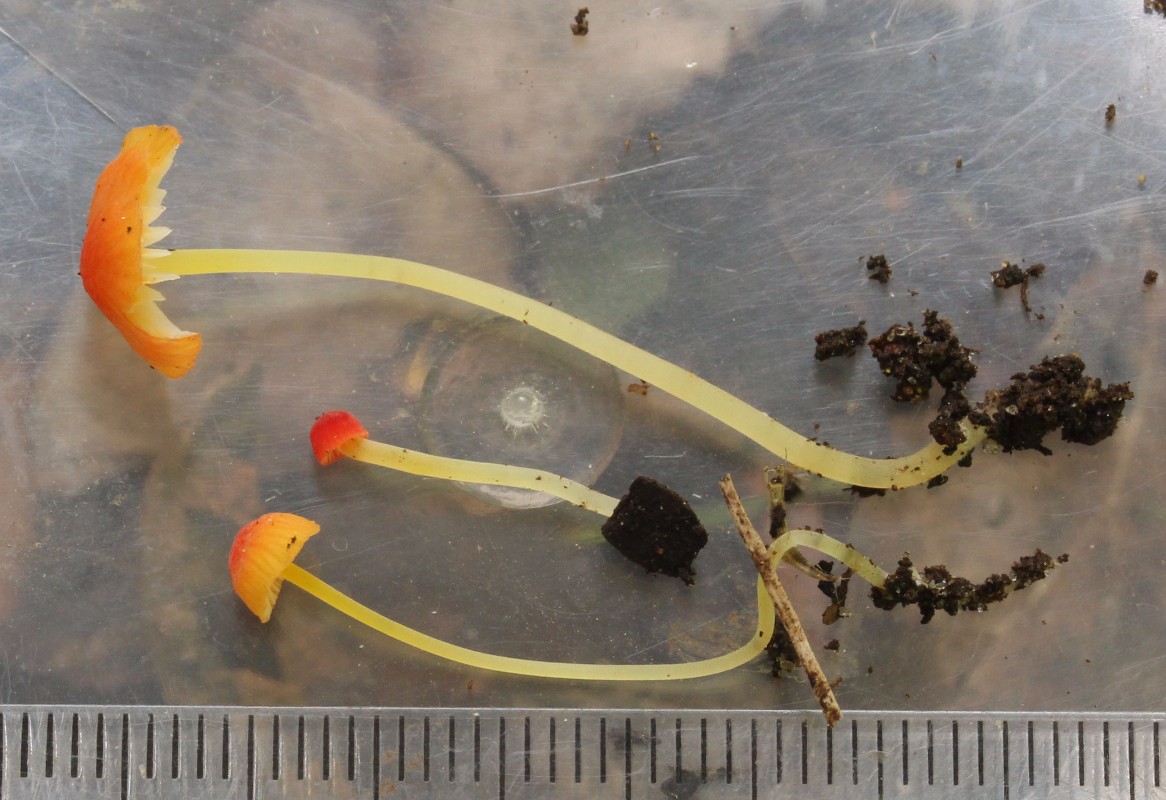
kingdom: Fungi
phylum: Basidiomycota
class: Agaricomycetes
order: Agaricales
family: Mycenaceae
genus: Mycena
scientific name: Mycena acicula
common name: orange huesvamp
